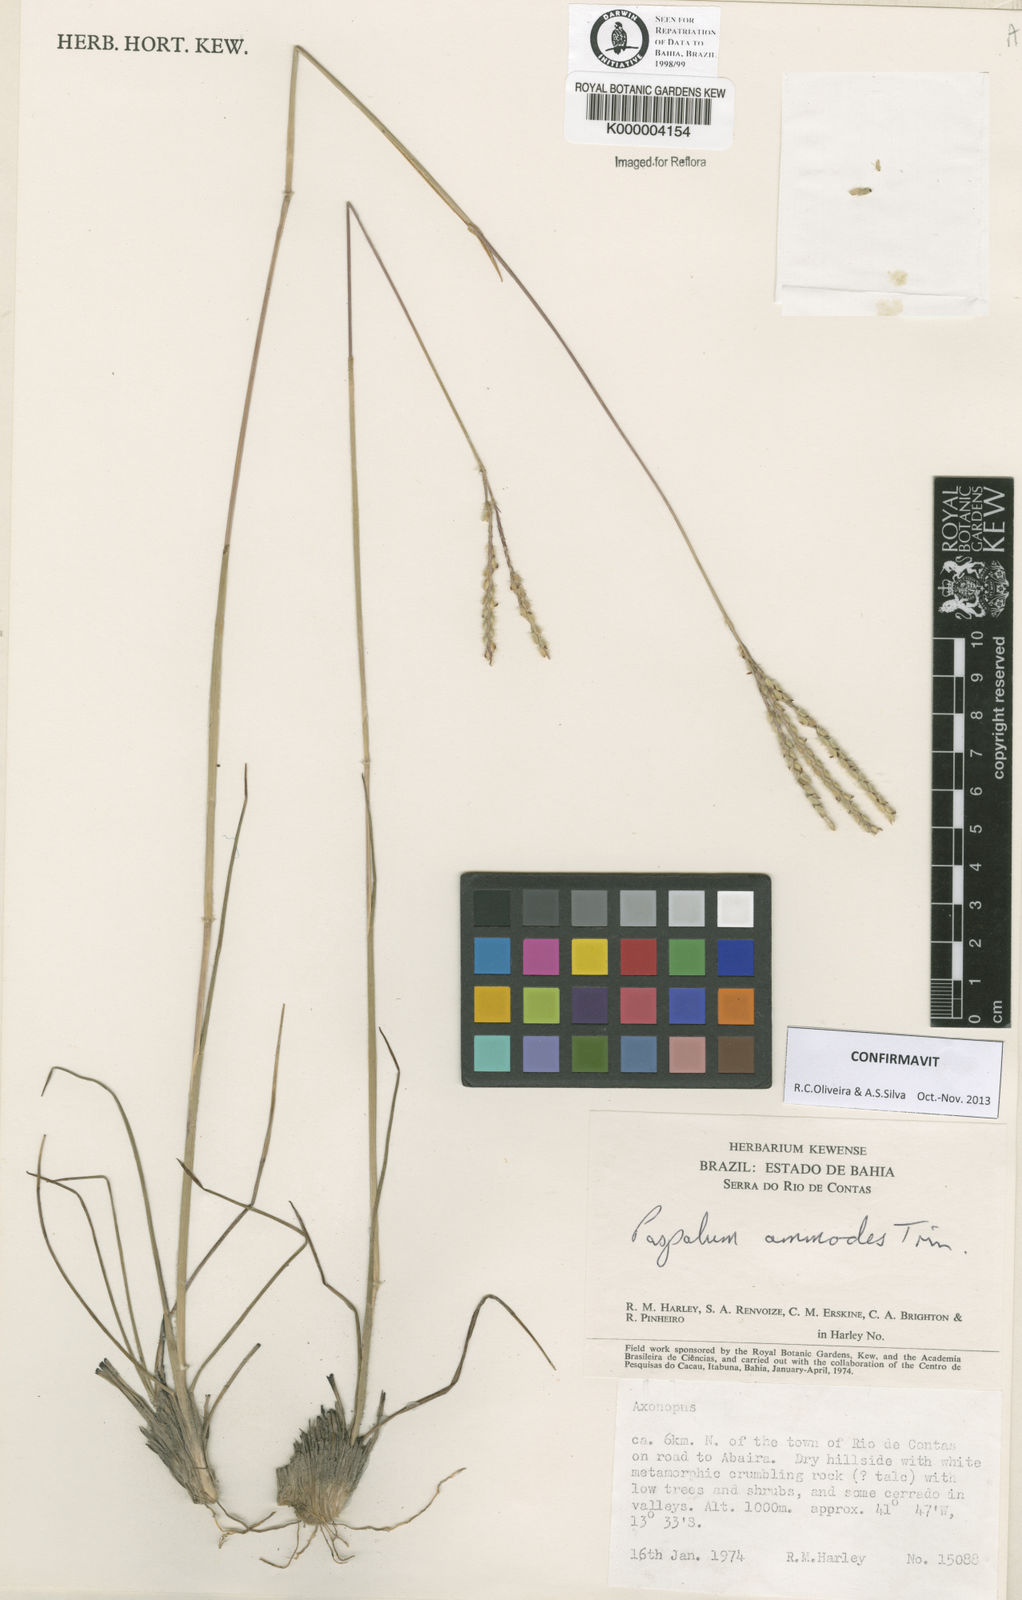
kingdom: Plantae
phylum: Tracheophyta
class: Liliopsida
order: Poales
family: Poaceae
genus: Paspalum
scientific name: Paspalum ammodes
